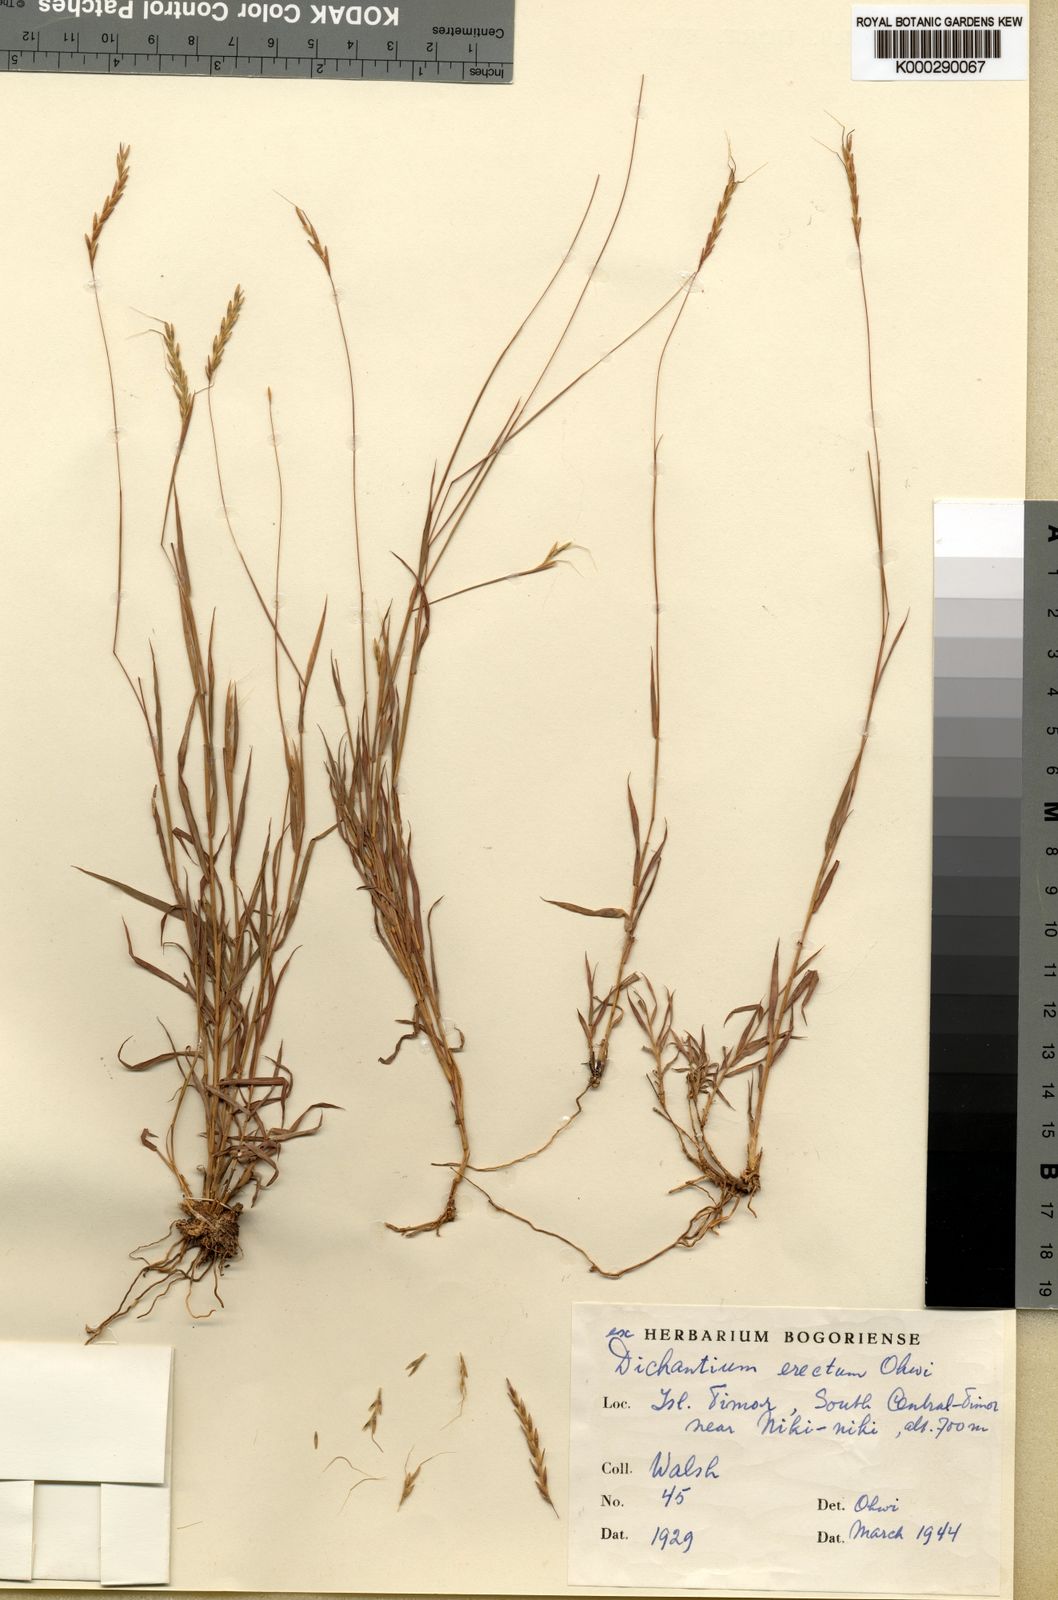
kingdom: Plantae
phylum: Tracheophyta
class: Liliopsida
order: Poales
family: Poaceae
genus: Dichanthium
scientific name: Dichanthium erectum
